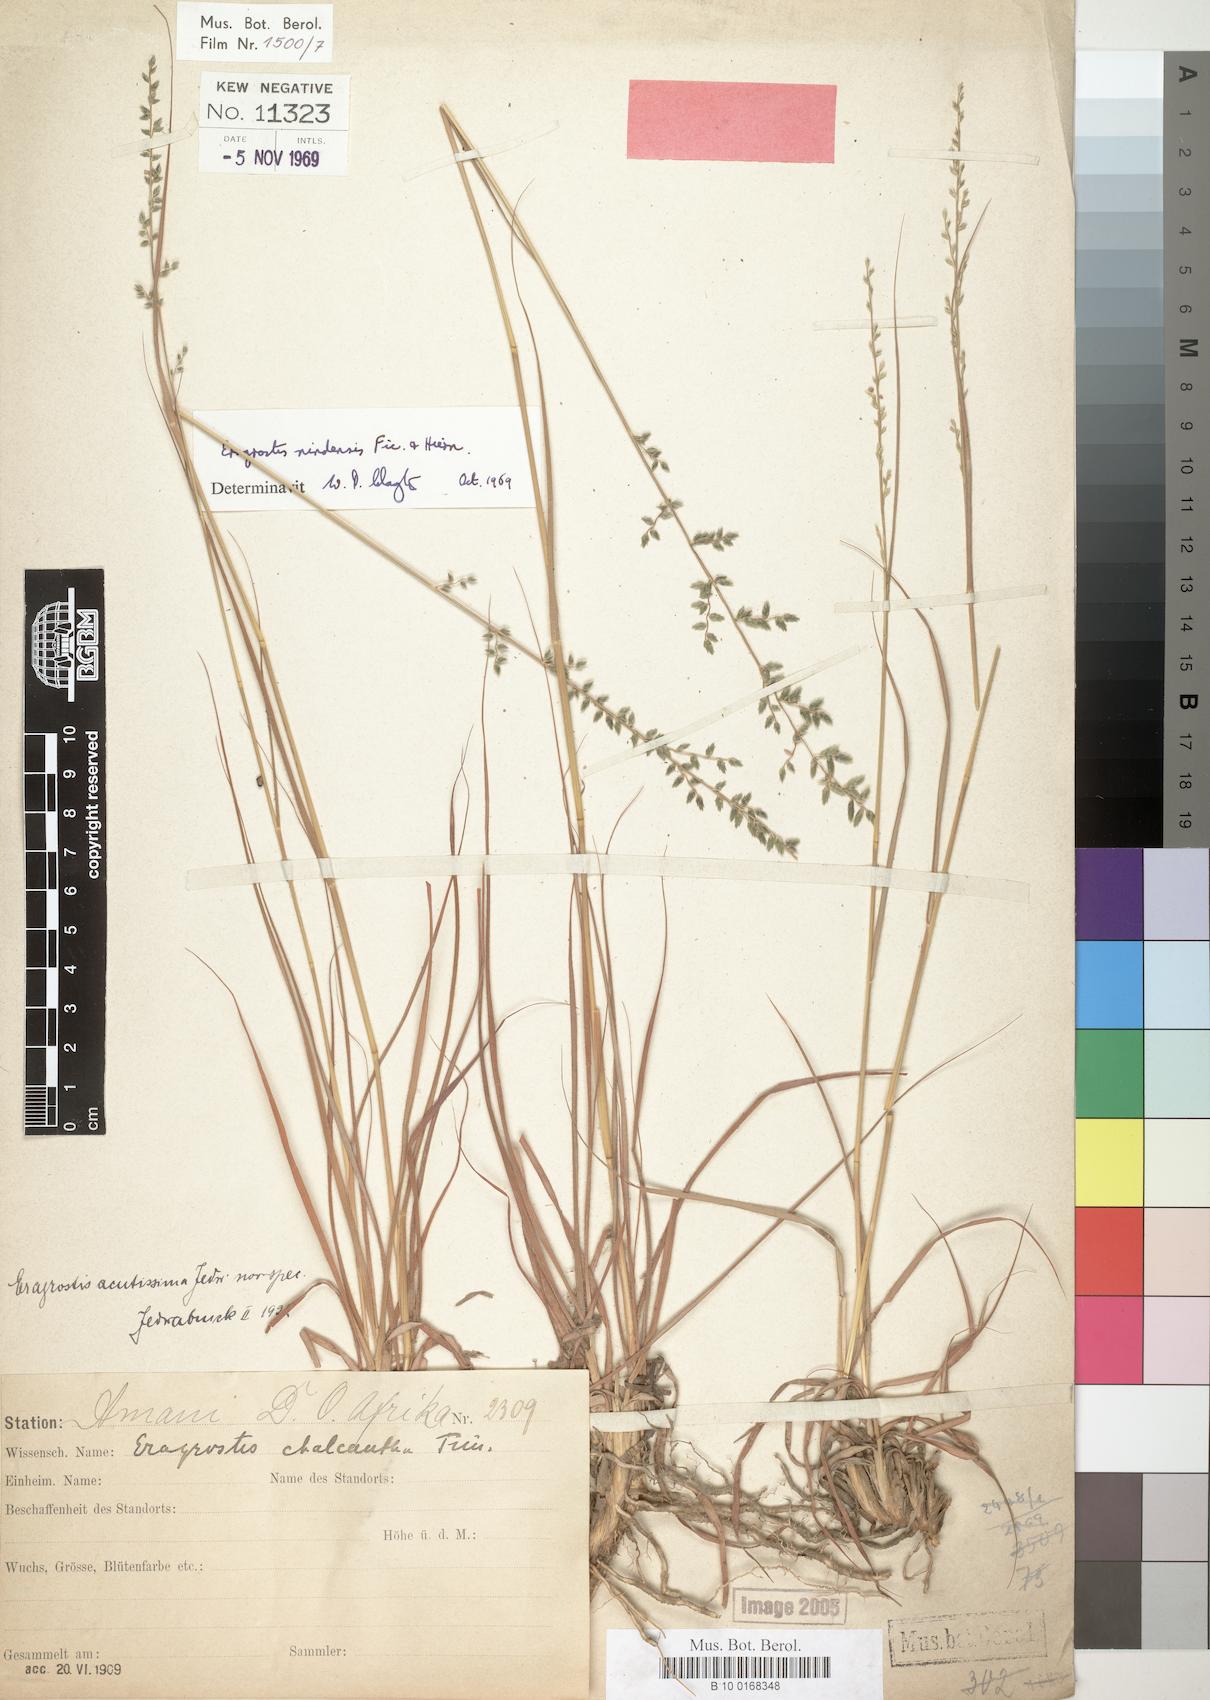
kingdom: Plantae
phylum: Tracheophyta
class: Liliopsida
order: Poales
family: Poaceae
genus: Eragrostis
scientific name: Eragrostis nindensis
